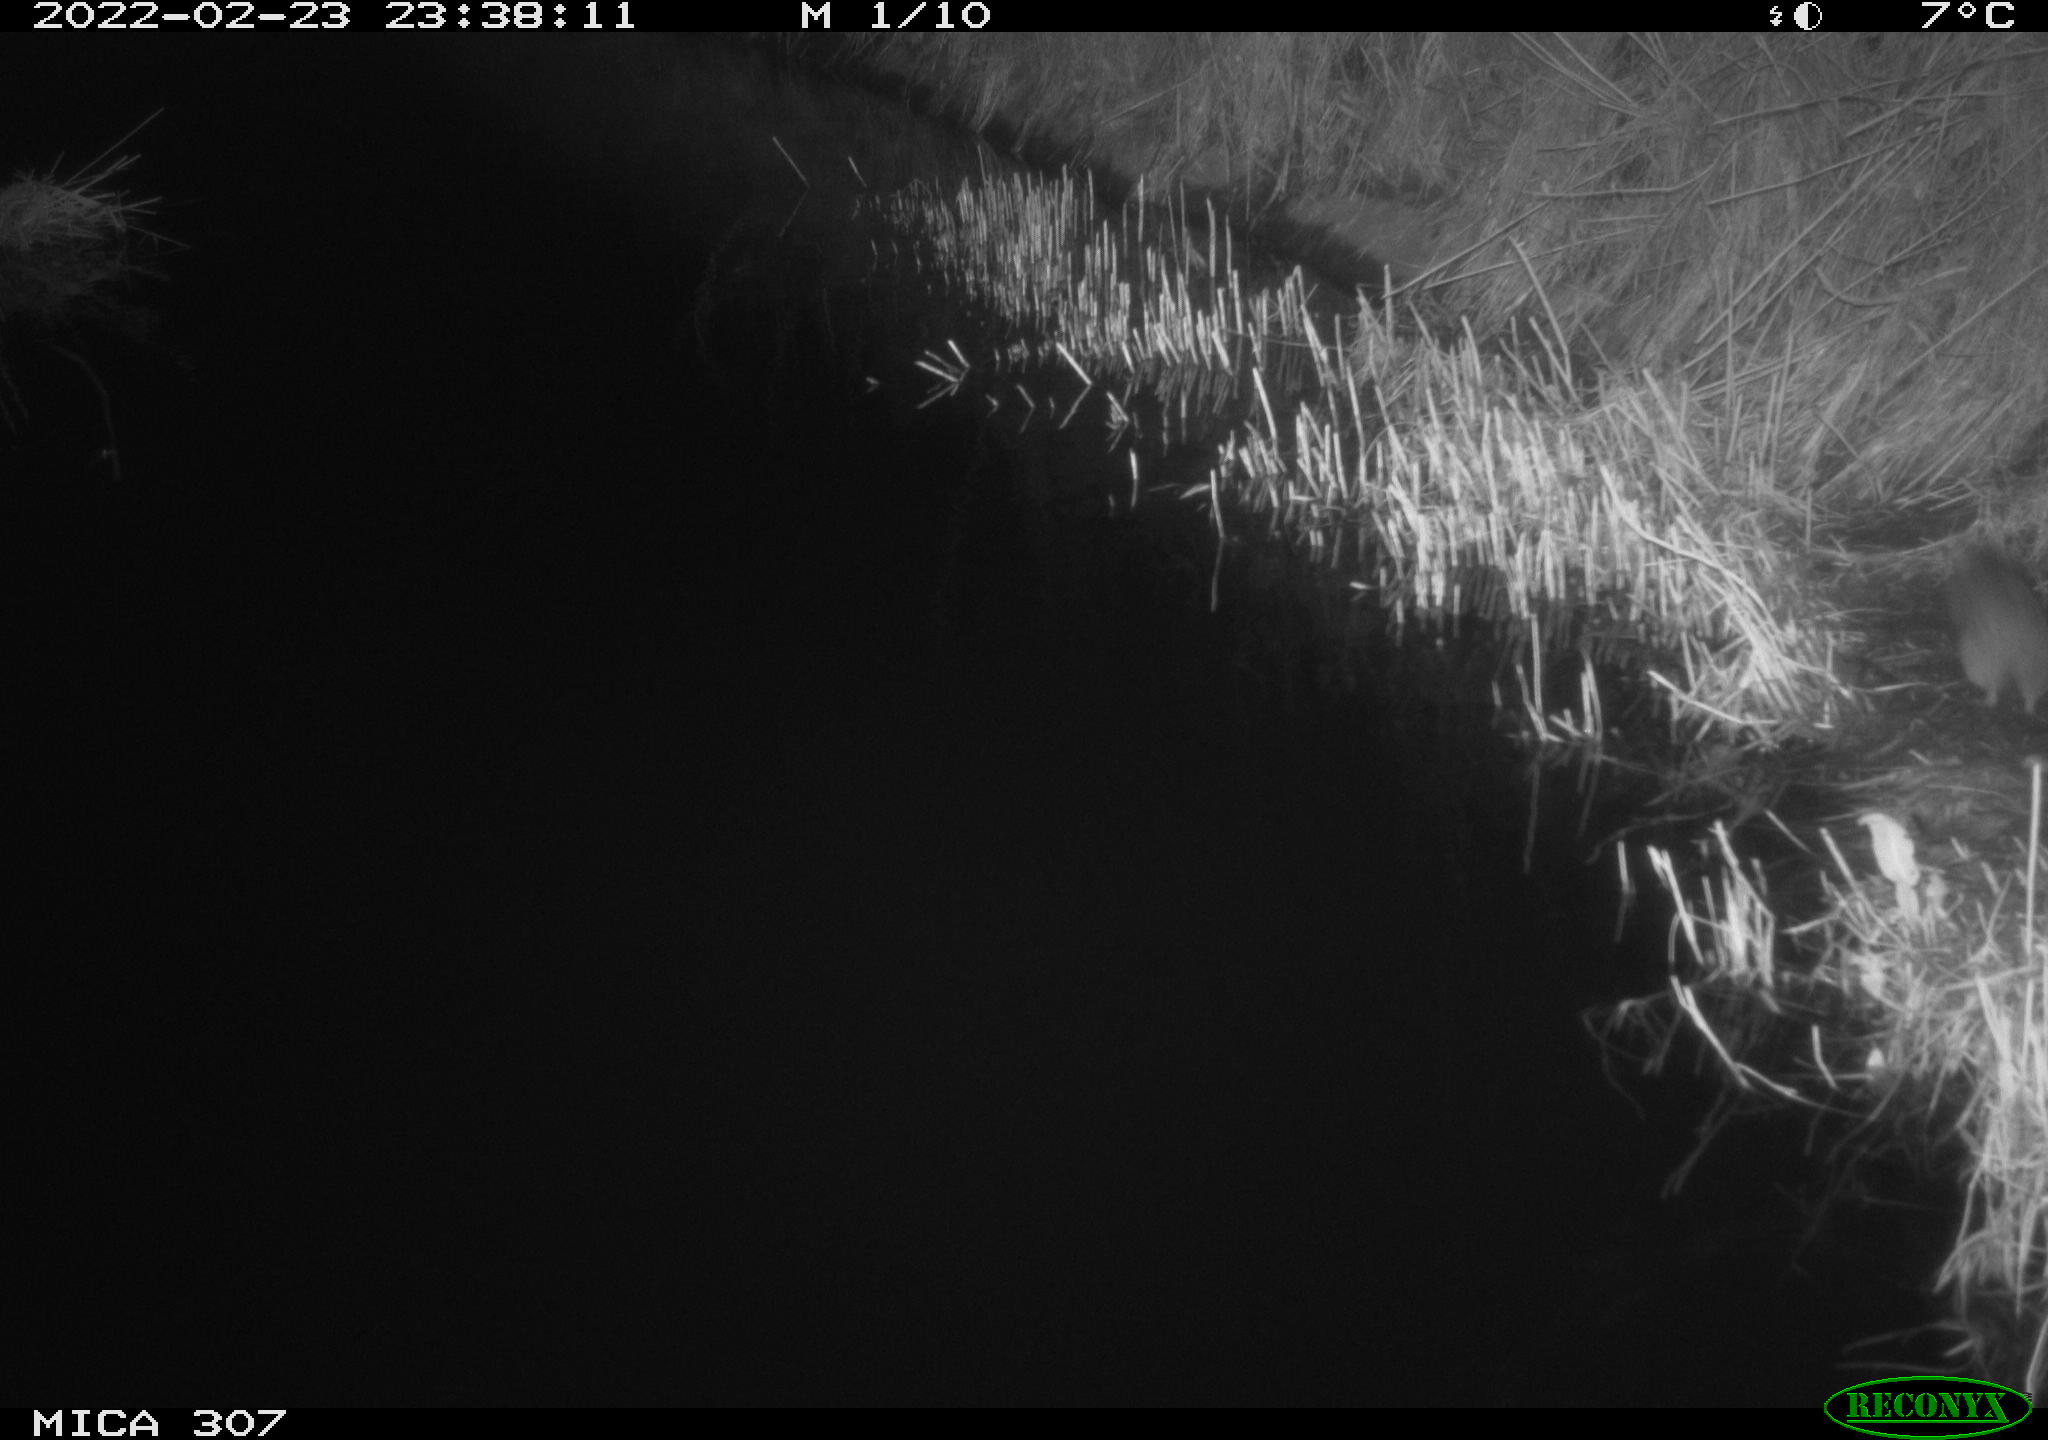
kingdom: Animalia
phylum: Chordata
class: Mammalia
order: Rodentia
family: Muridae
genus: Rattus
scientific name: Rattus norvegicus
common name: Brown rat
